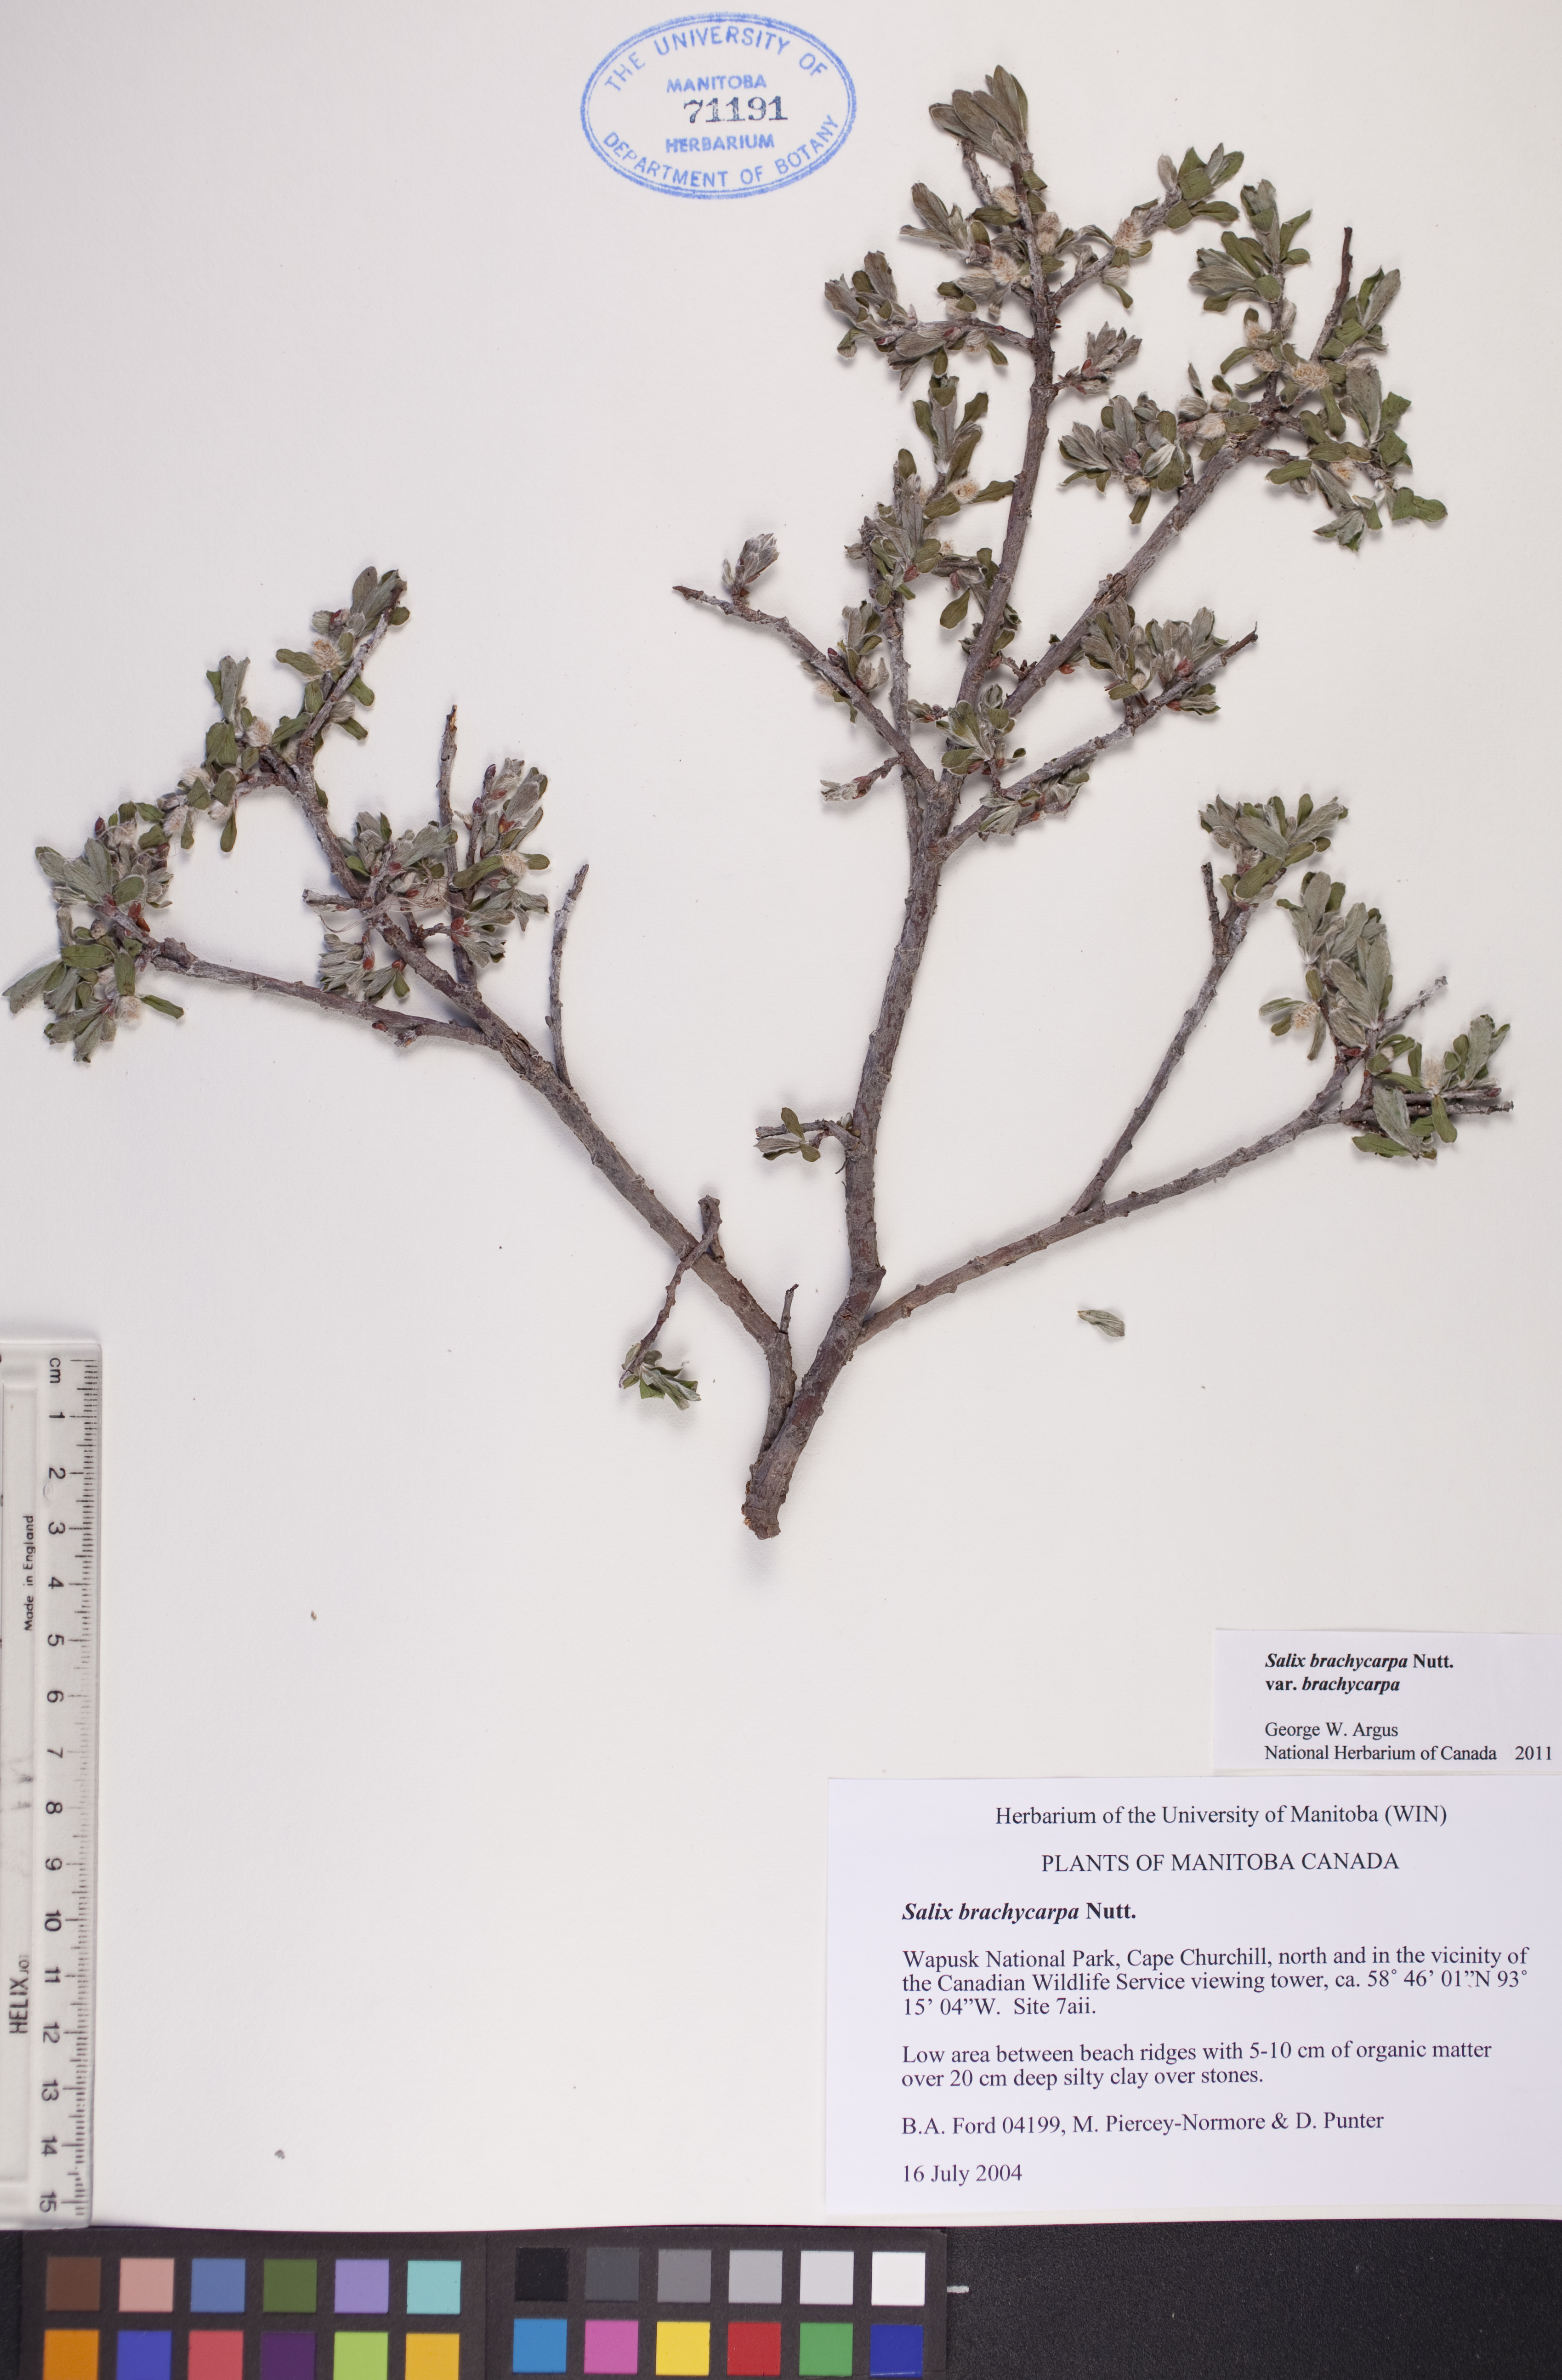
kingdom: Plantae
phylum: Tracheophyta
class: Magnoliopsida
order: Malpighiales
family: Salicaceae
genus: Salix
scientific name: Salix brachycarpa
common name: Barren-ground willow
